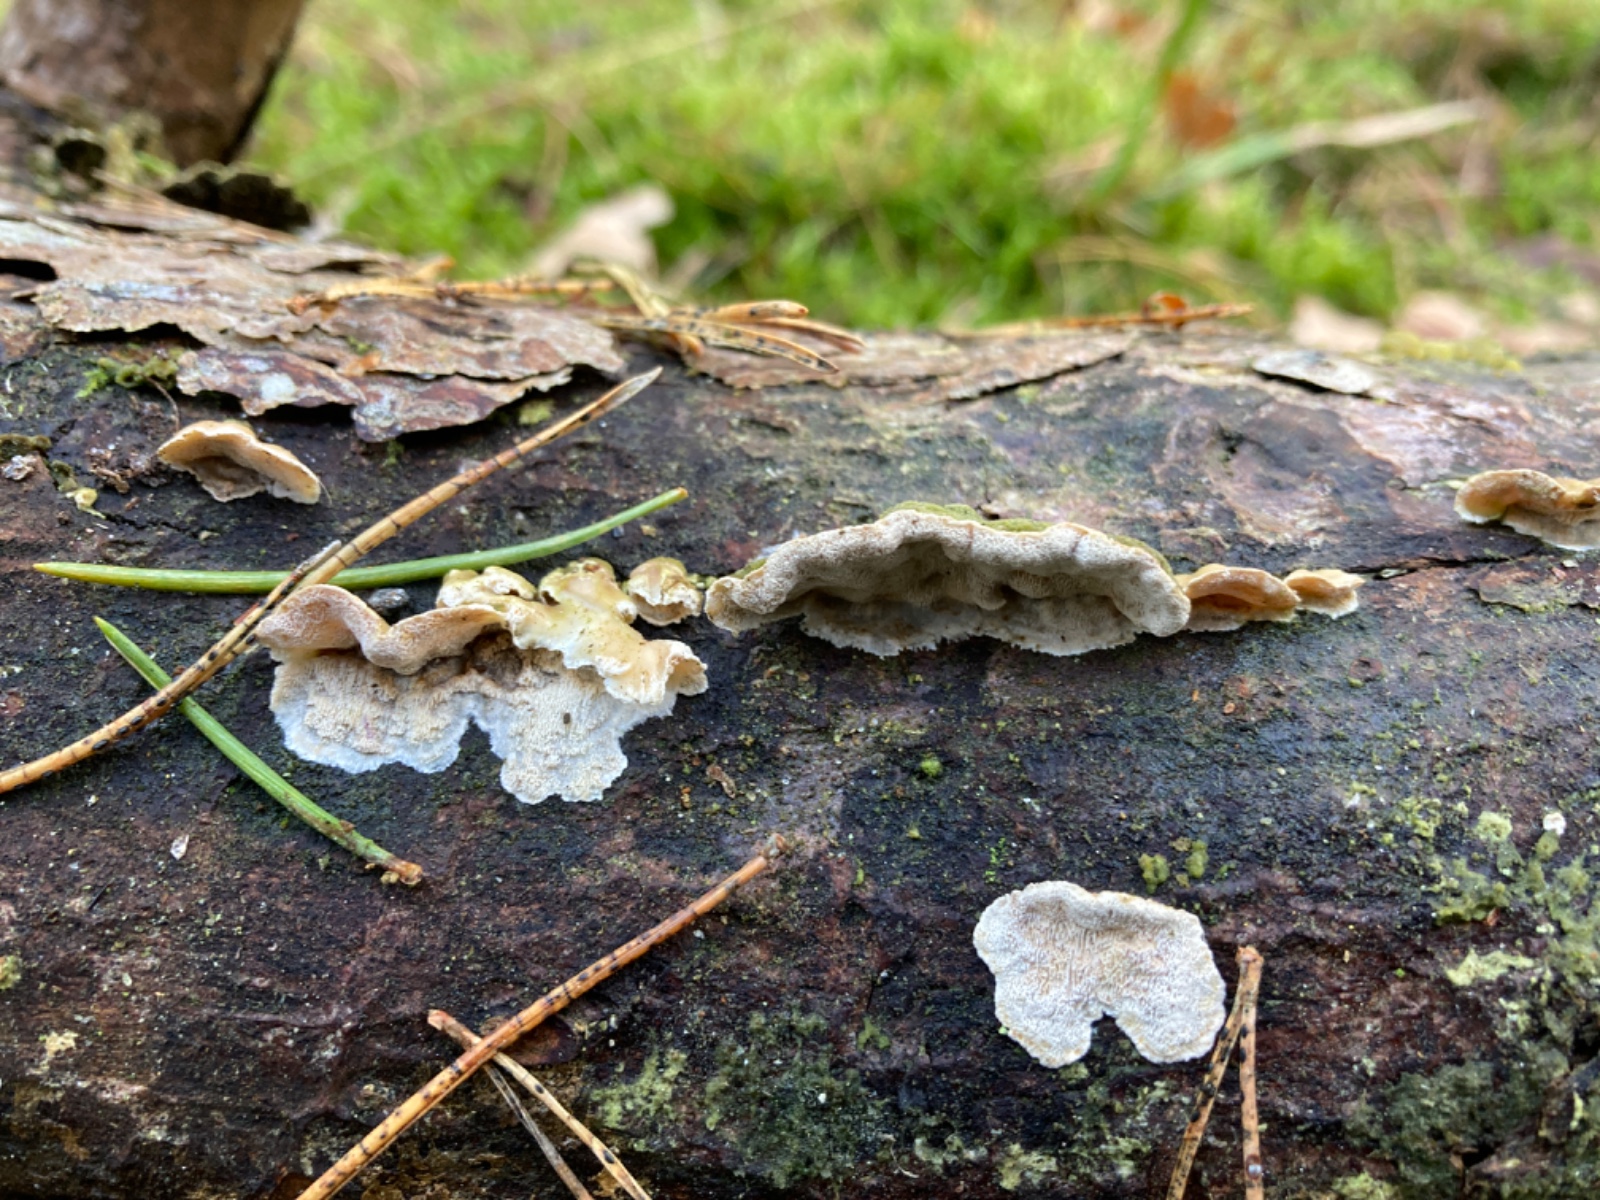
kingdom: Fungi
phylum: Basidiomycota
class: Agaricomycetes
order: Polyporales
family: Incrustoporiaceae
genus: Skeletocutis
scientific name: Skeletocutis carneogrisea
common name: rødgrå krystalporesvamp
